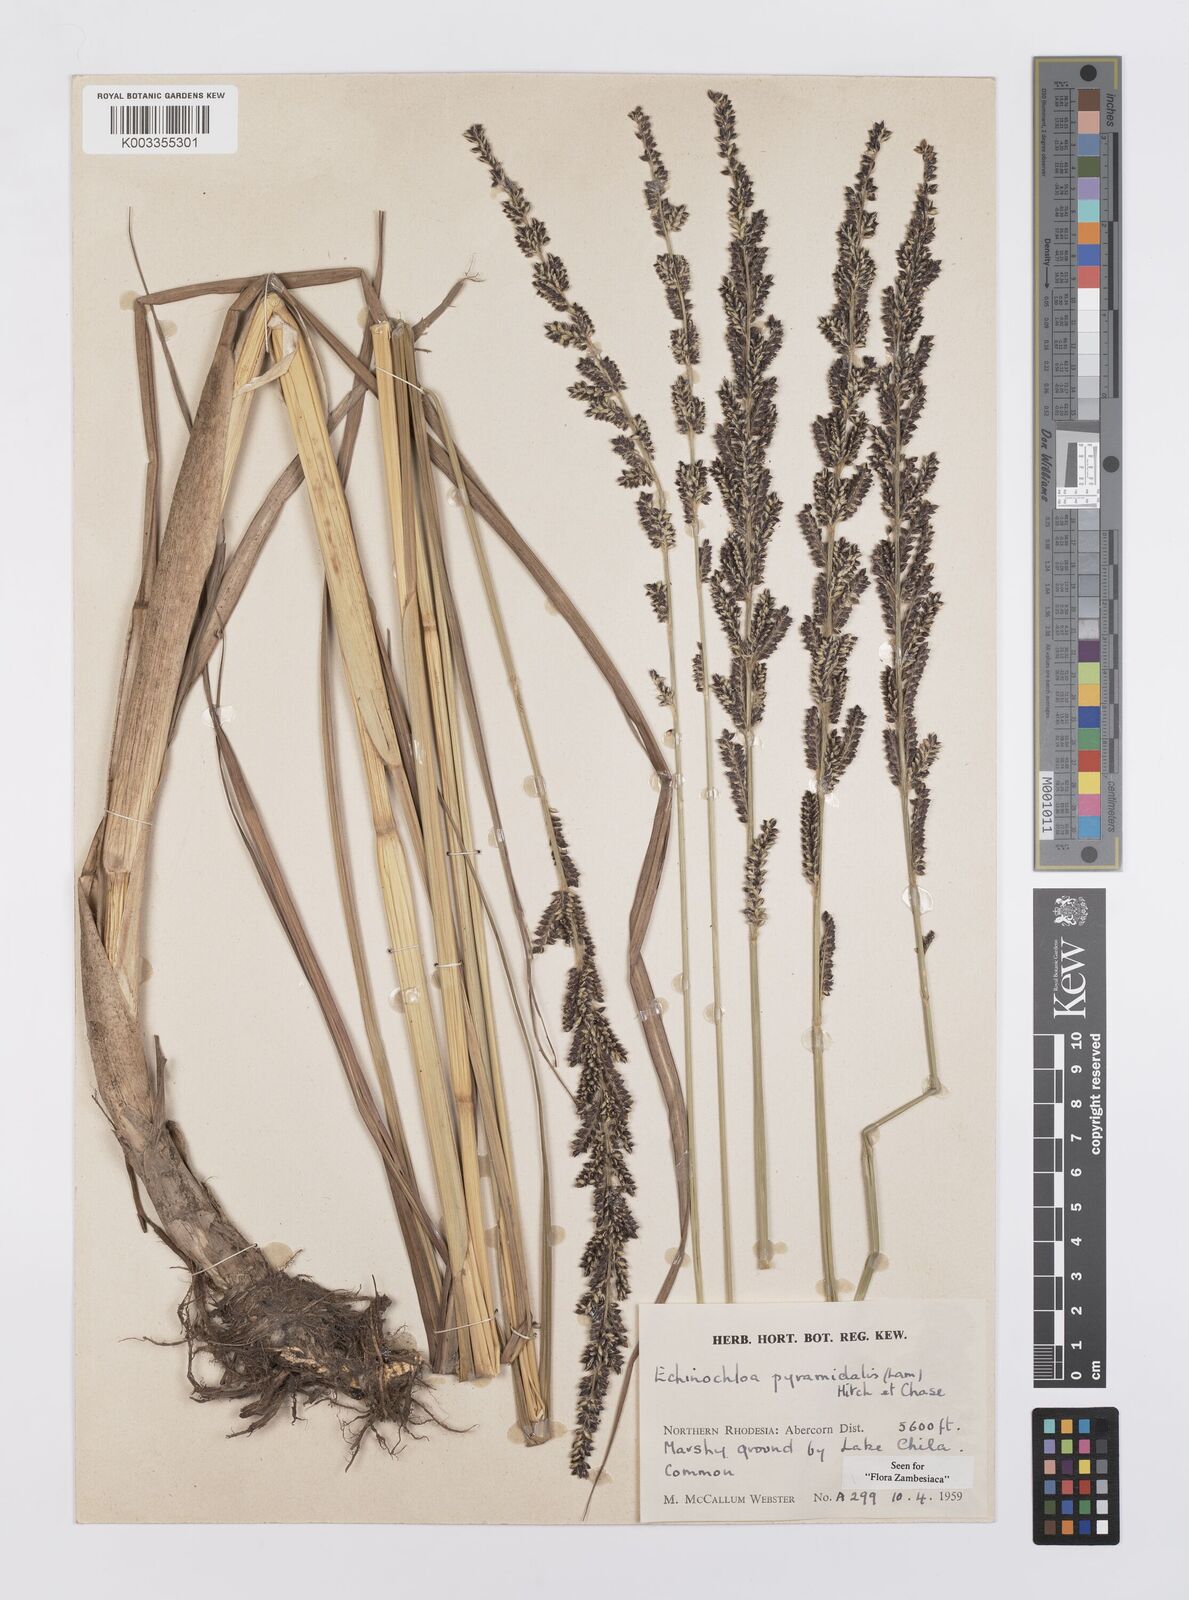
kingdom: Plantae
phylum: Tracheophyta
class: Liliopsida
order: Poales
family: Poaceae
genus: Echinochloa
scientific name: Echinochloa pyramidalis
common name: Antelope grass
